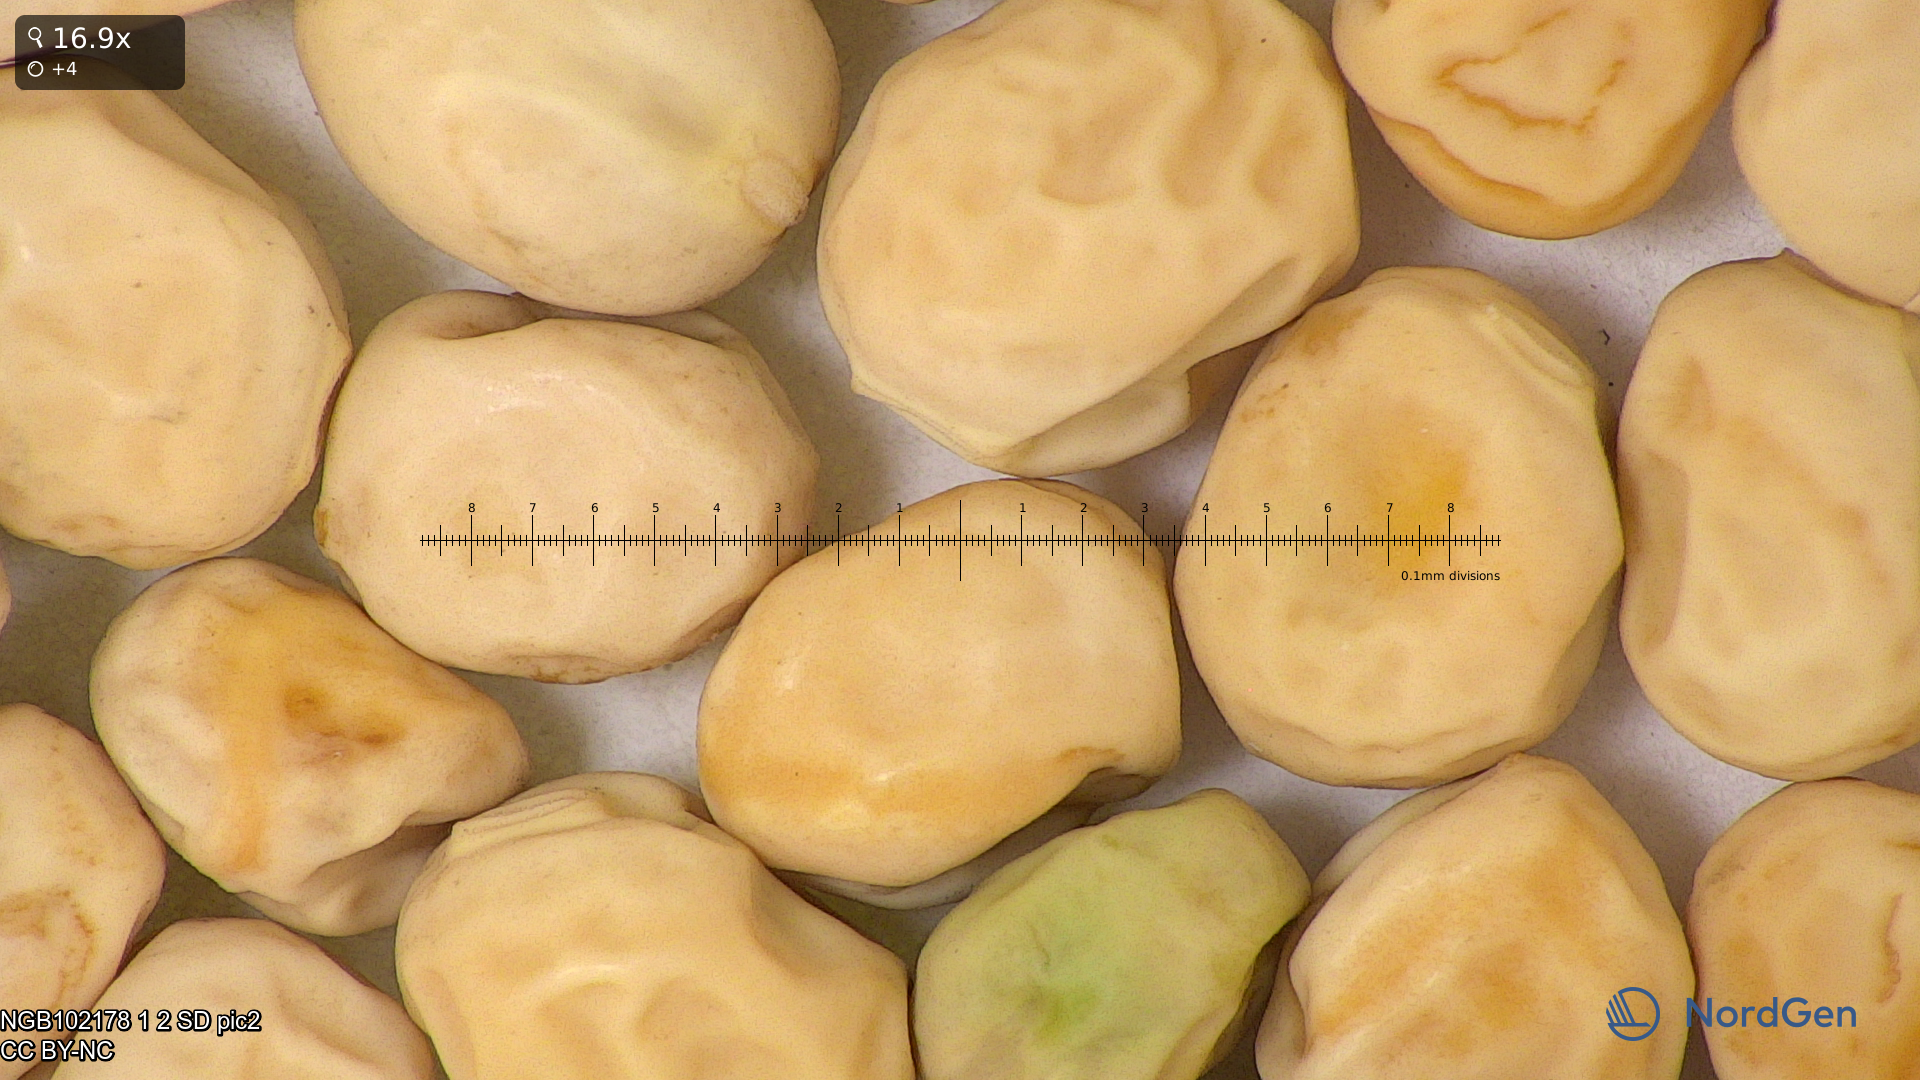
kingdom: Plantae
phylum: Tracheophyta
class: Magnoliopsida
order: Fabales
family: Fabaceae
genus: Lathyrus
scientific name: Lathyrus oleraceus
